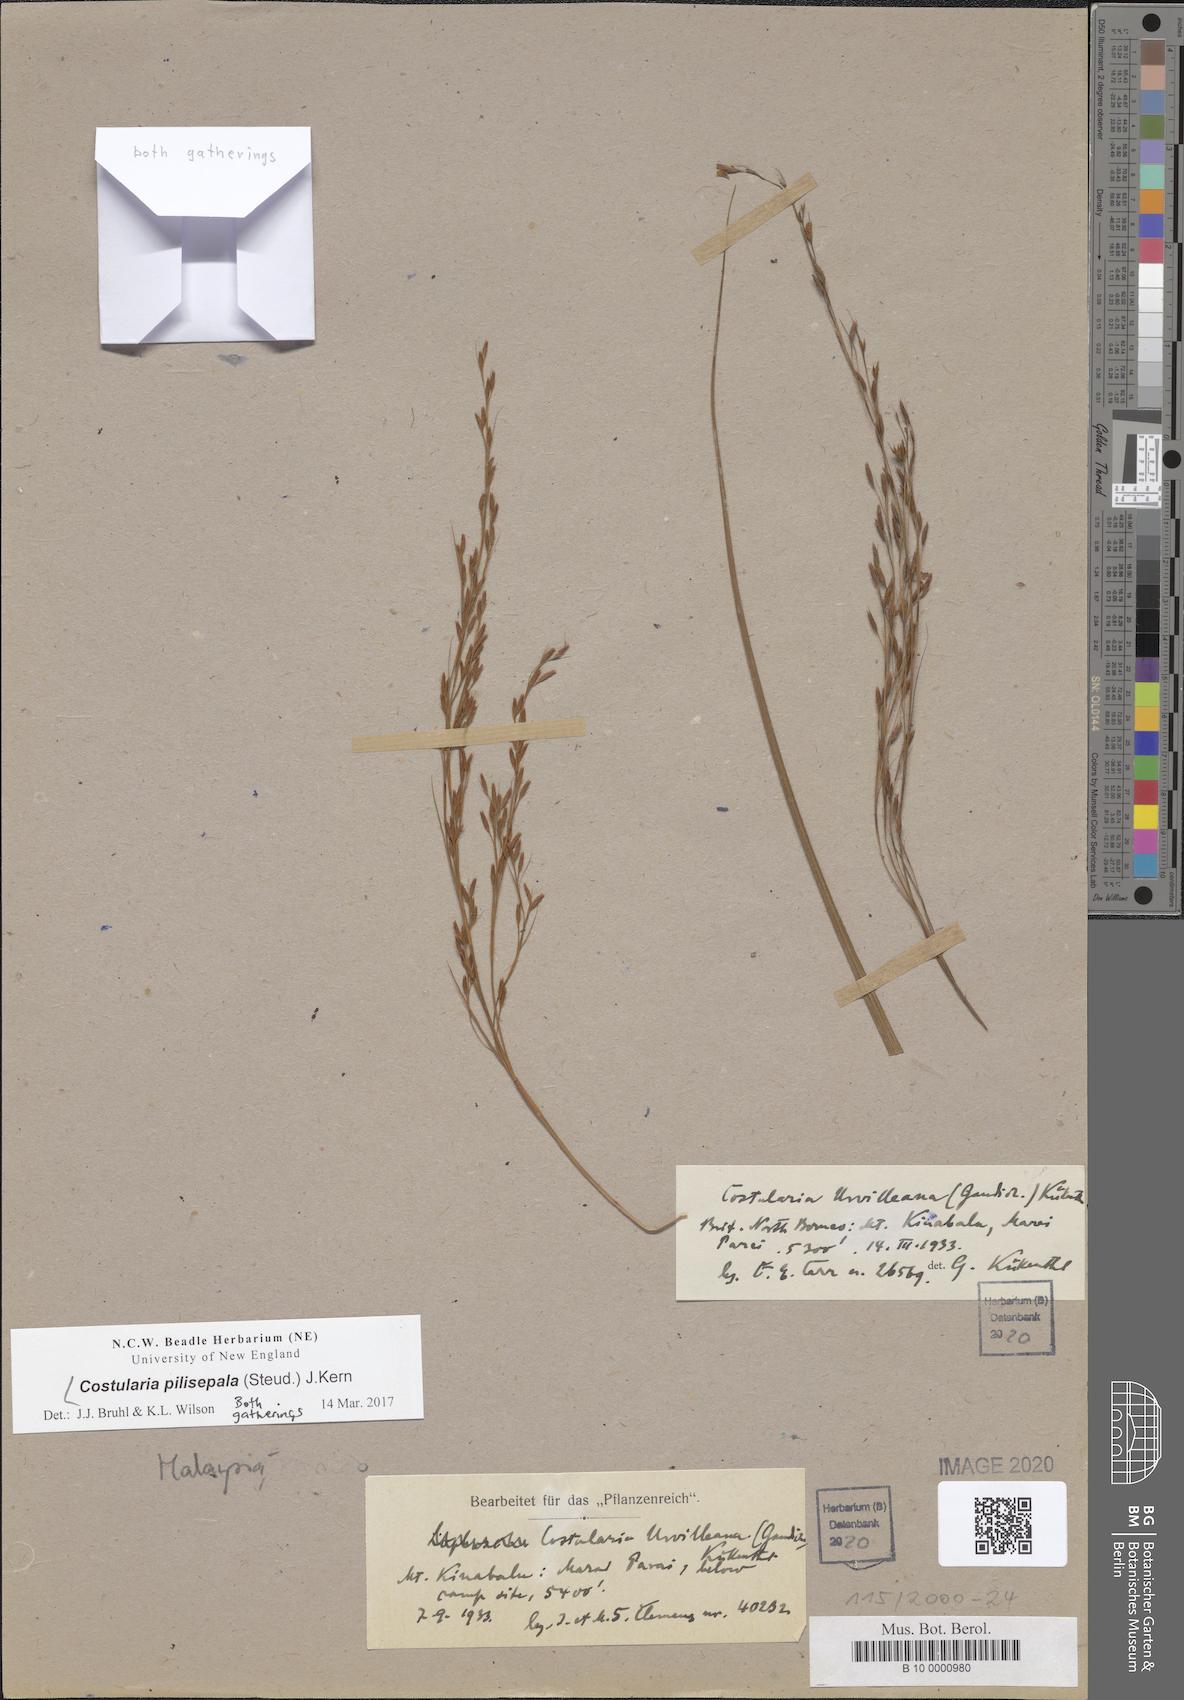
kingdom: Plantae
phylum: Tracheophyta
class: Liliopsida
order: Poales
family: Cyperaceae
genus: Tetraria
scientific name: Tetraria pilisepala
